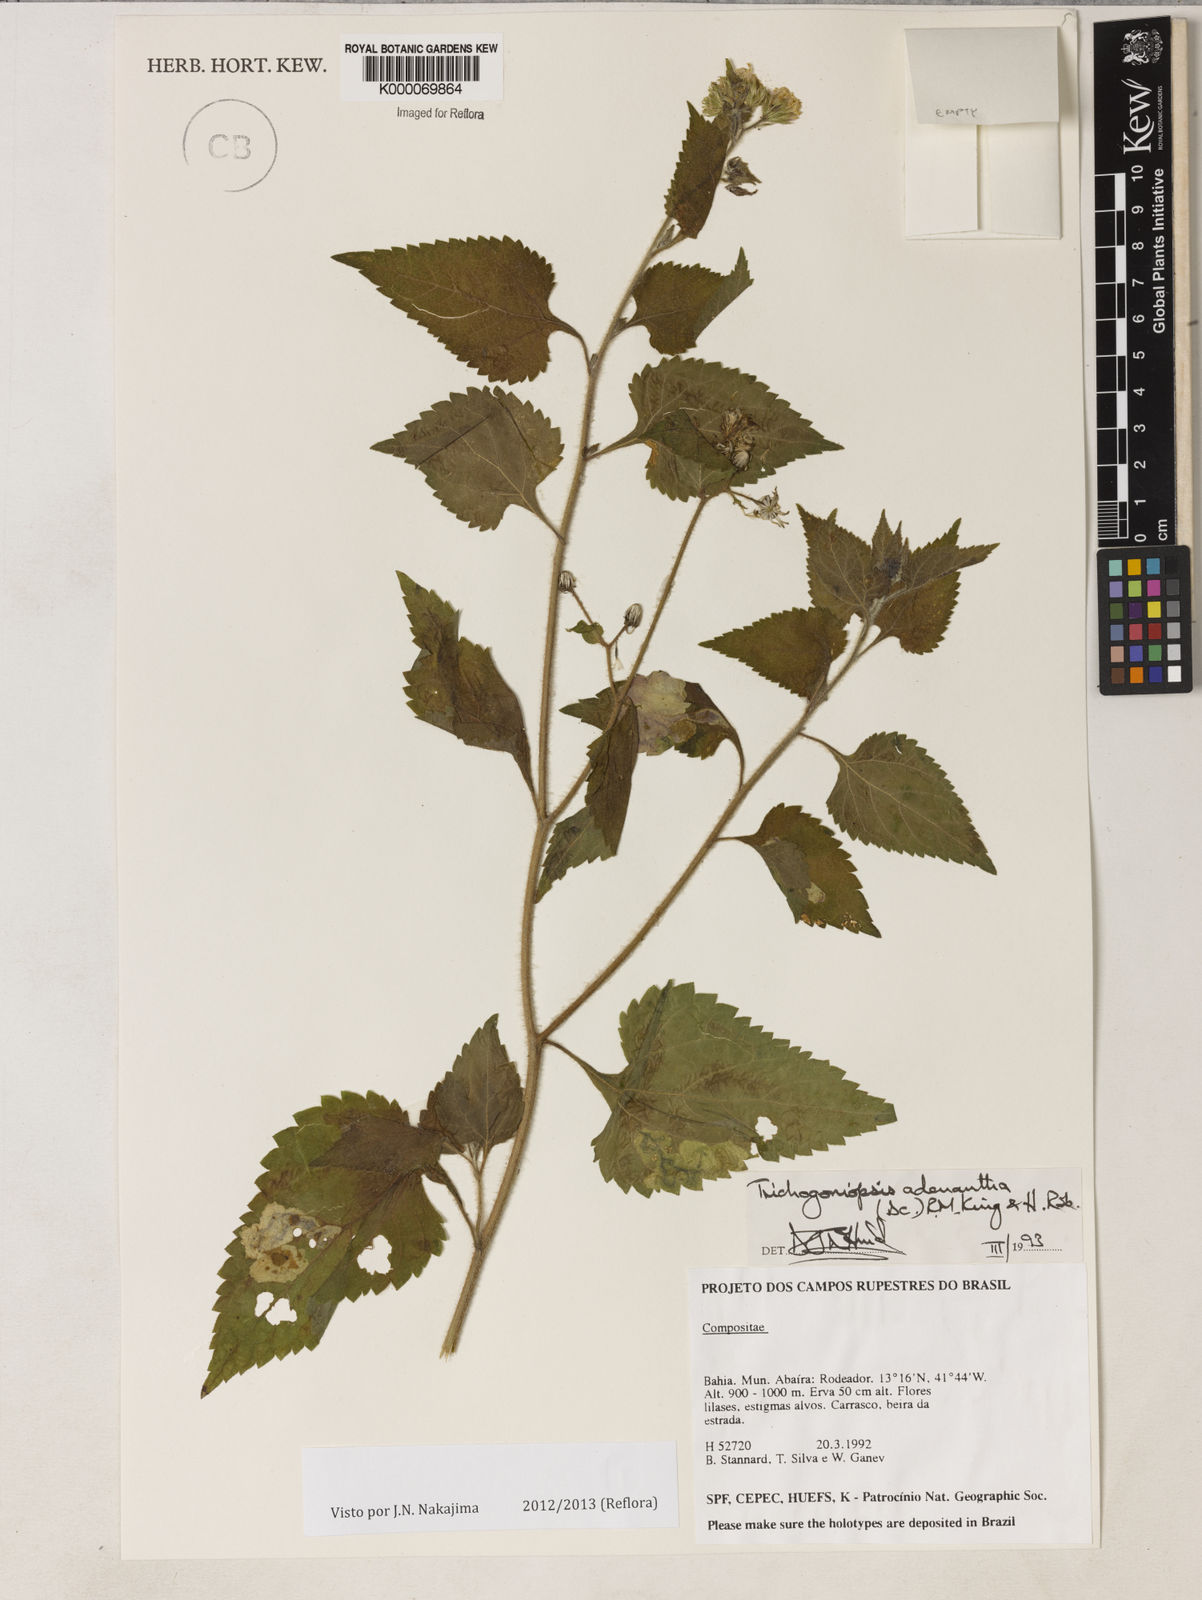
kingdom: Plantae
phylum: Tracheophyta
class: Magnoliopsida
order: Asterales
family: Asteraceae
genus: Trichogoniopsis
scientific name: Trichogoniopsis adenantha
